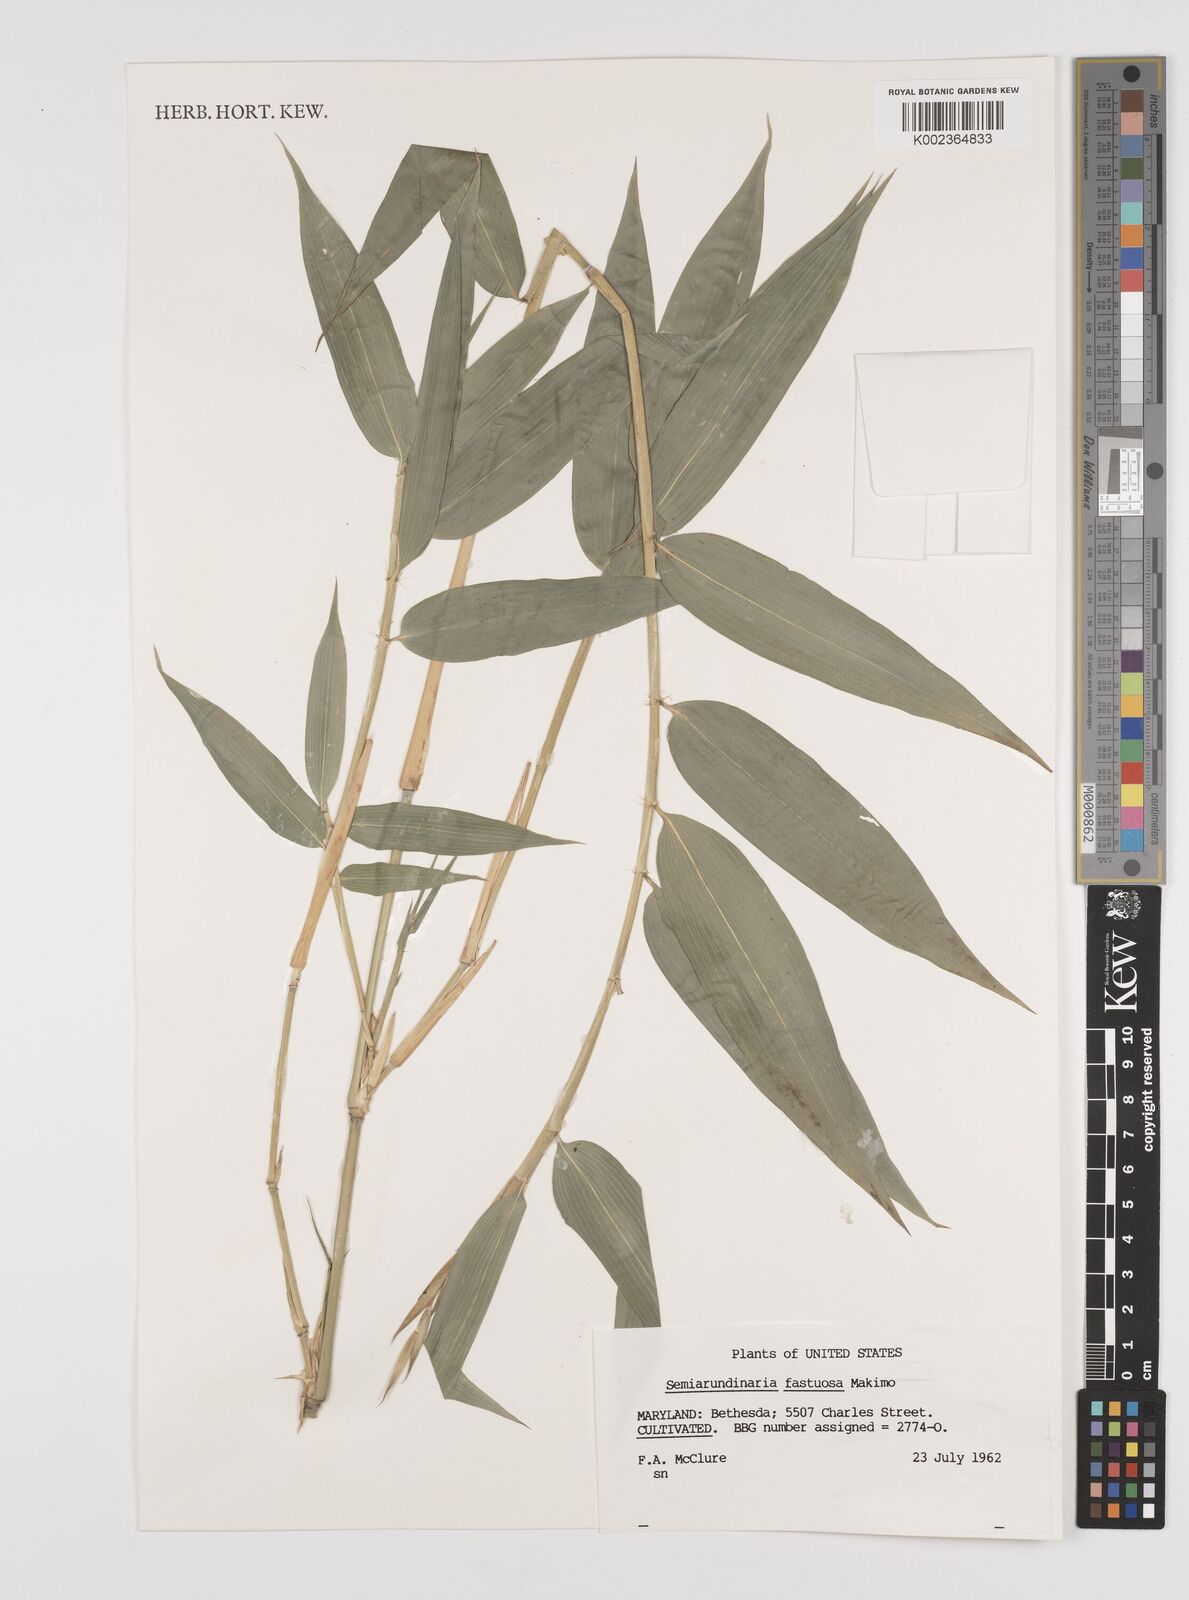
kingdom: Plantae
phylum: Tracheophyta
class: Liliopsida
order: Poales
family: Poaceae
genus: Semiarundinaria
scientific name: Semiarundinaria fastuosa
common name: Narihira bamboo
